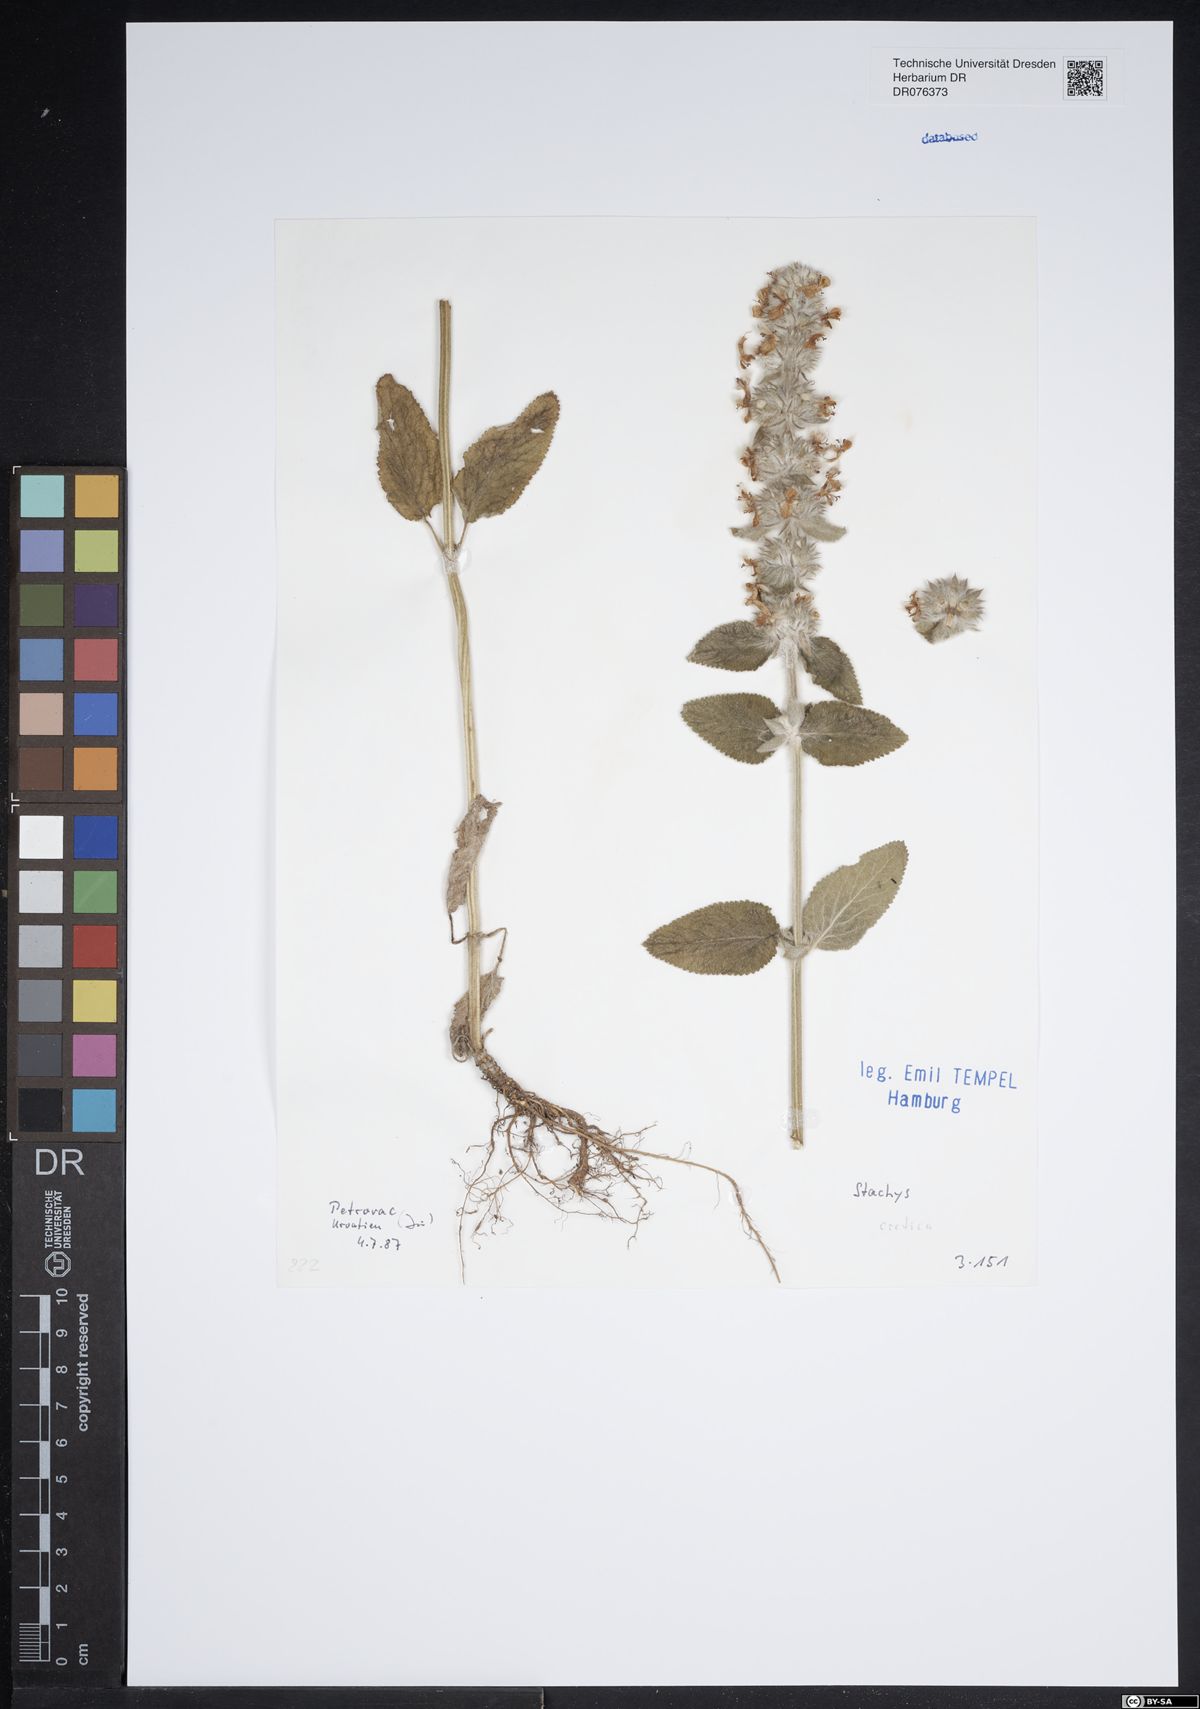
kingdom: Plantae
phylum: Tracheophyta
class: Magnoliopsida
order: Lamiales
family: Lamiaceae
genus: Stachys
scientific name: Stachys cretica
